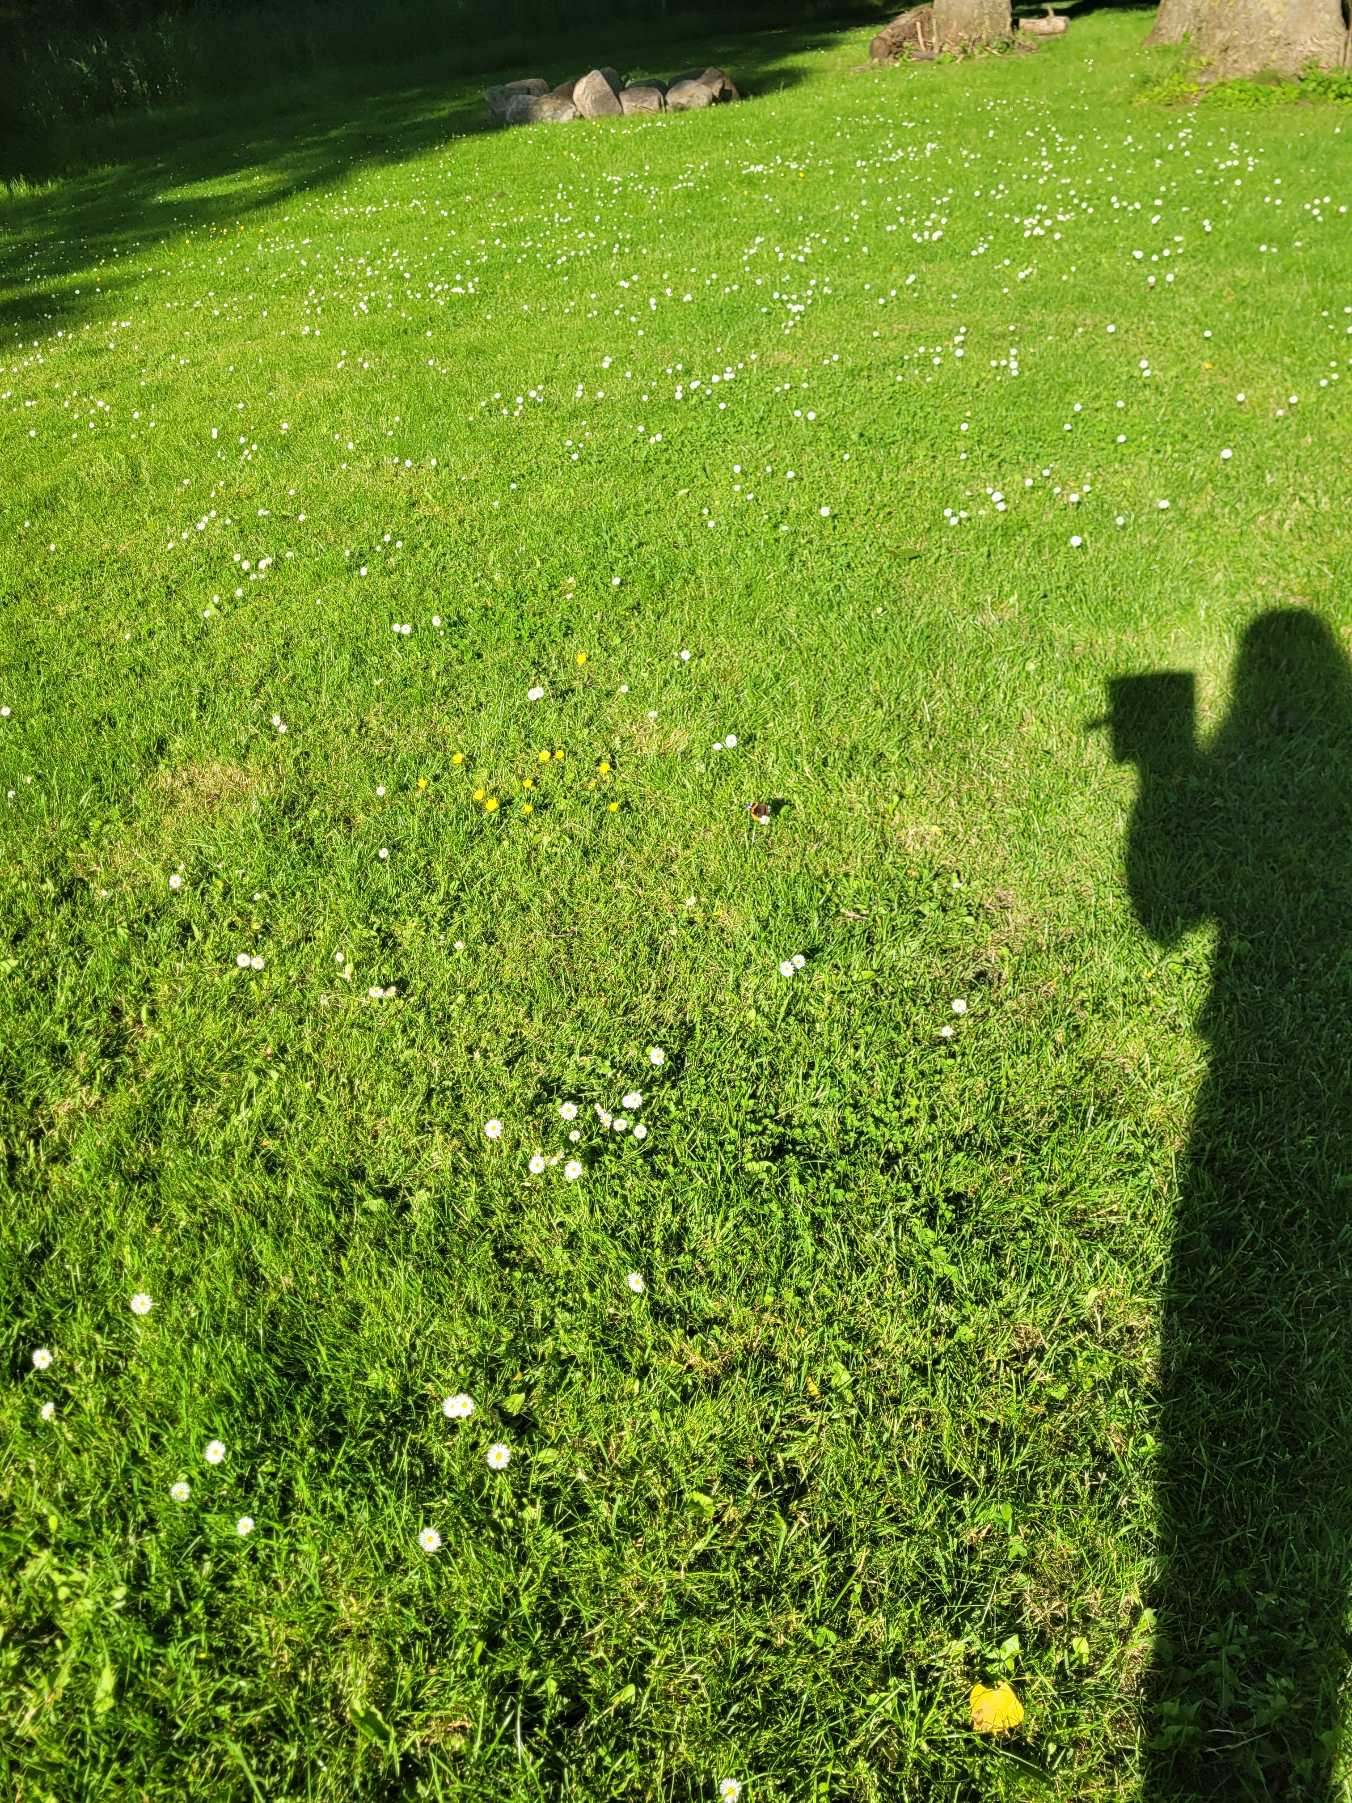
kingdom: Animalia
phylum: Arthropoda
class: Insecta
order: Lepidoptera
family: Nymphalidae
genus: Vanessa
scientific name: Vanessa atalanta
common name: Admiral
